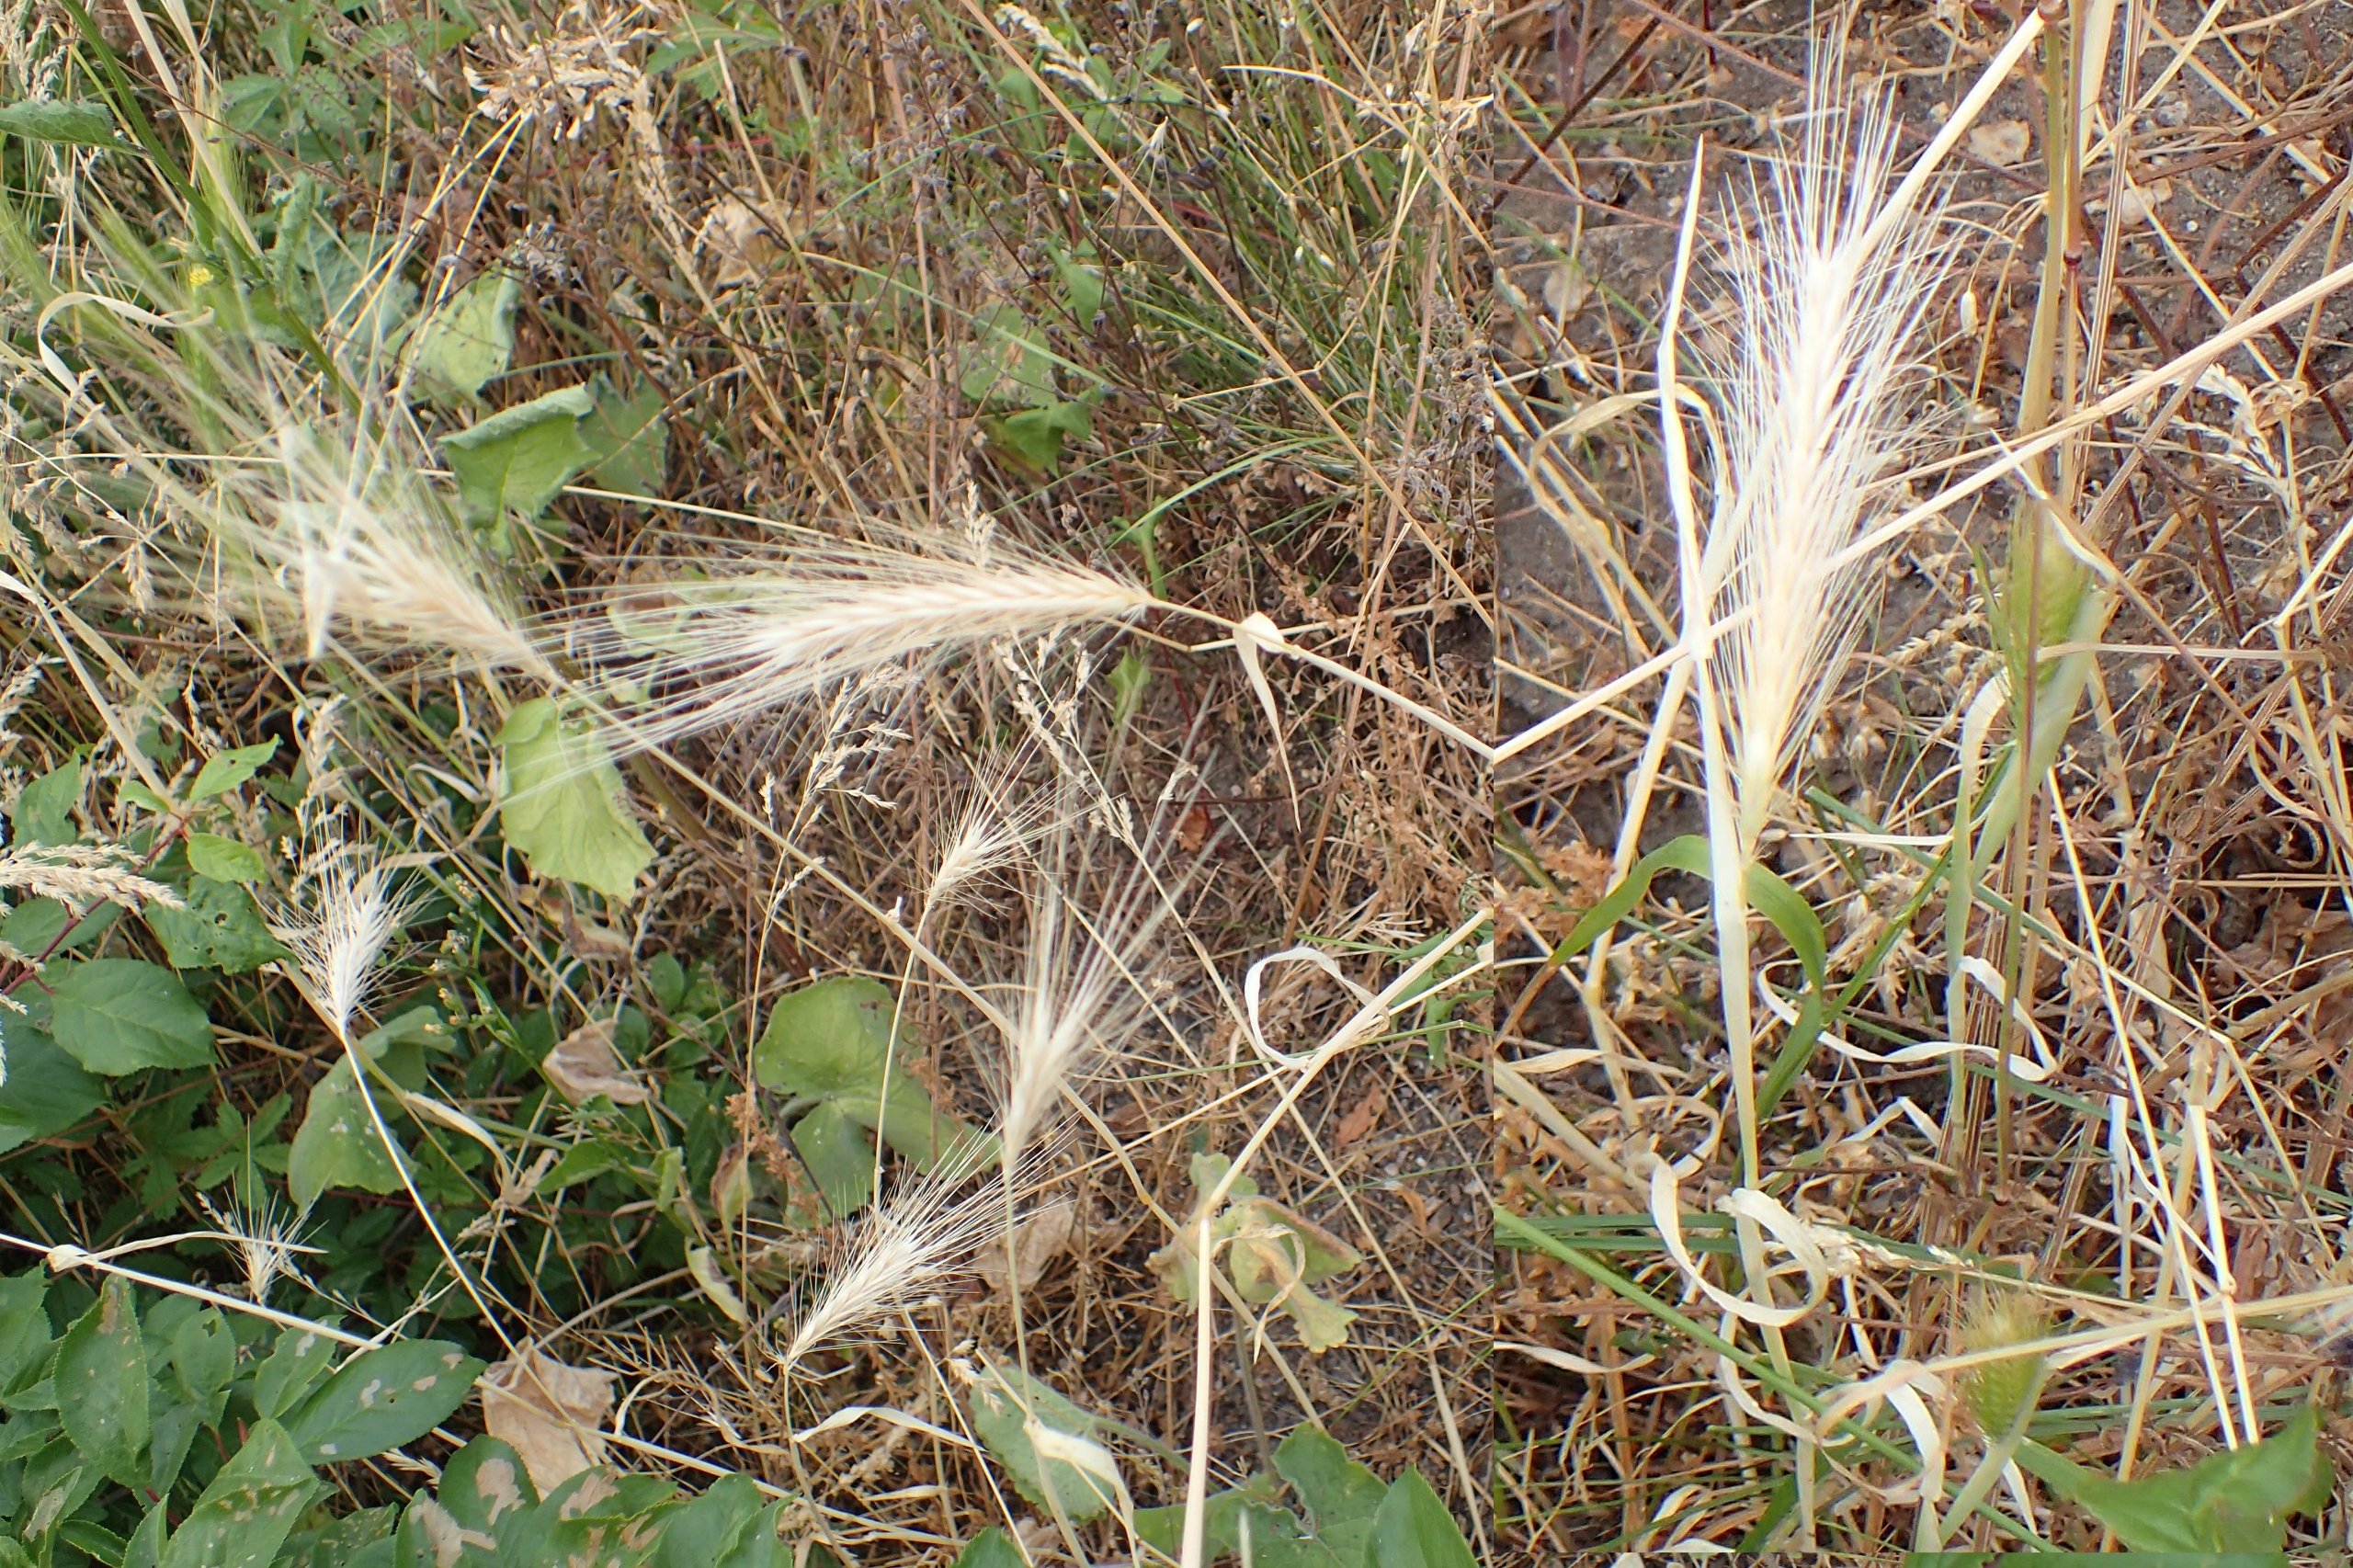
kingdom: Plantae
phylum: Tracheophyta
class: Liliopsida
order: Poales
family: Poaceae
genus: Hordeum
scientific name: Hordeum jubatum
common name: Egernhale-byg
